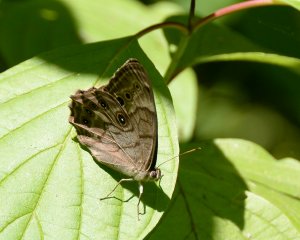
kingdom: Animalia
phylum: Arthropoda
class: Insecta
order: Lepidoptera
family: Nymphalidae
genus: Lethe
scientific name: Lethe anthedon
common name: Northern Pearly-Eye
